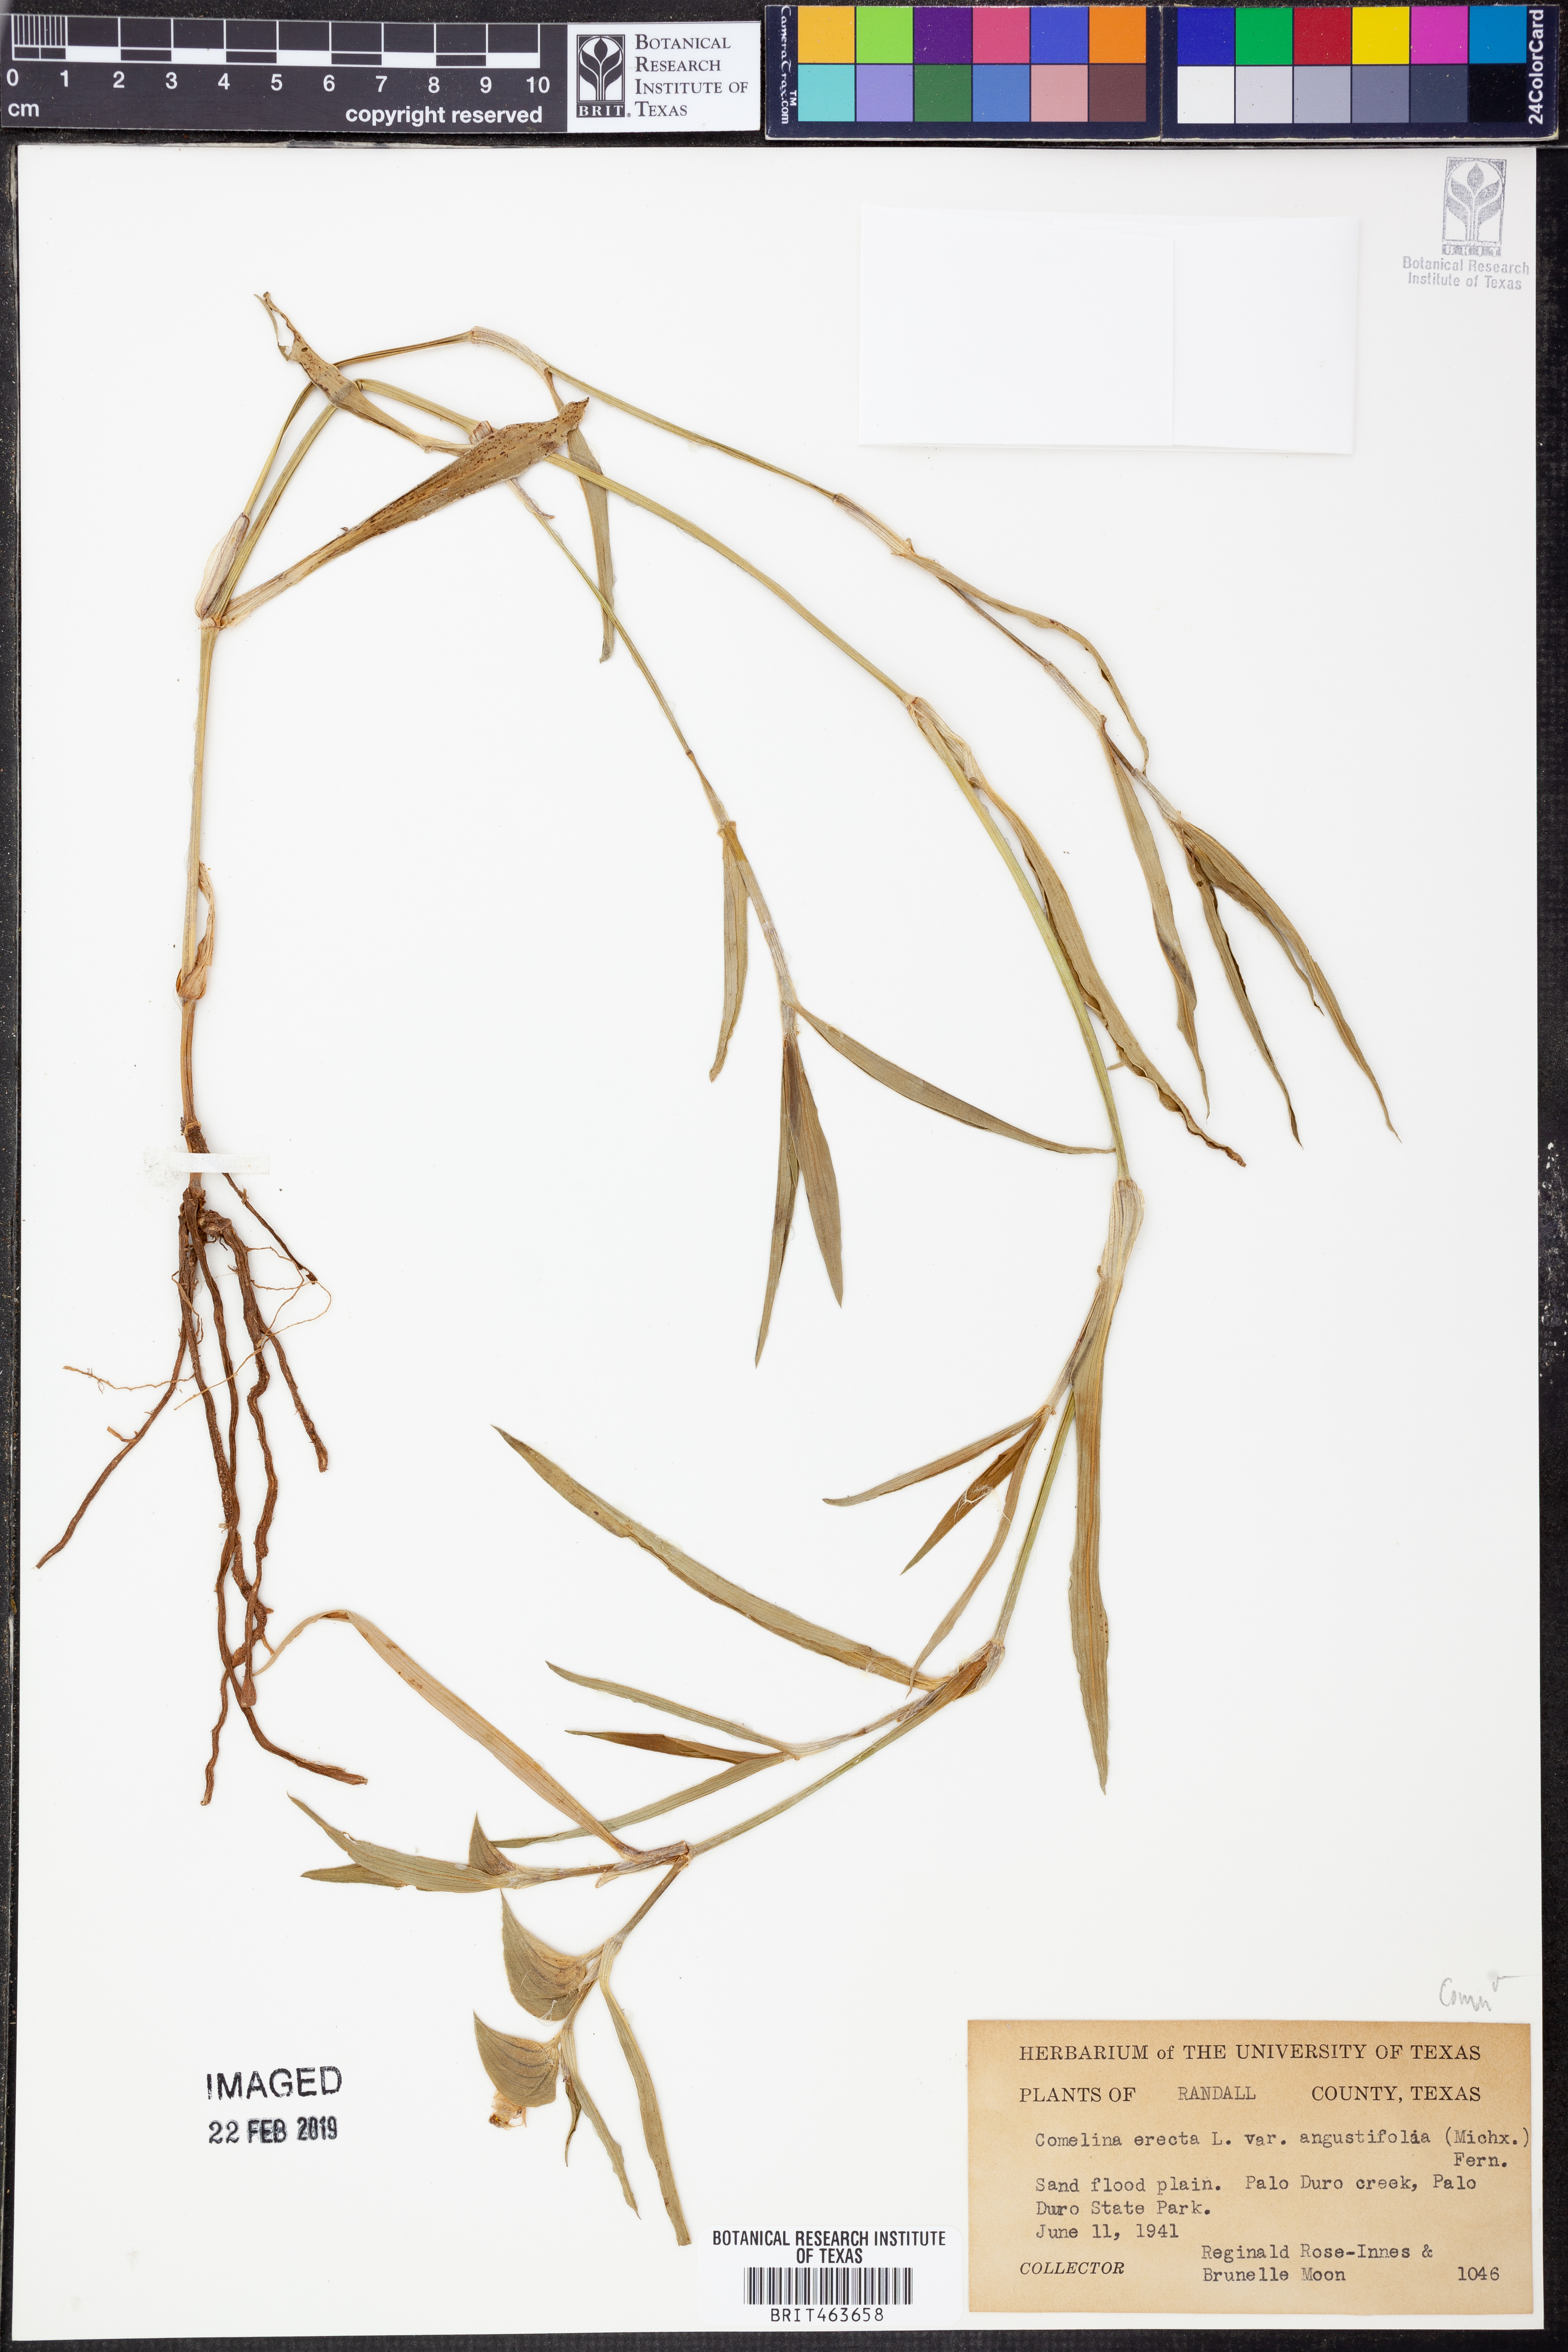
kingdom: Plantae
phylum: Tracheophyta
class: Liliopsida
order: Commelinales
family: Commelinaceae
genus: Commelina
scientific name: Commelina erecta
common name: Blousel blommetjie
